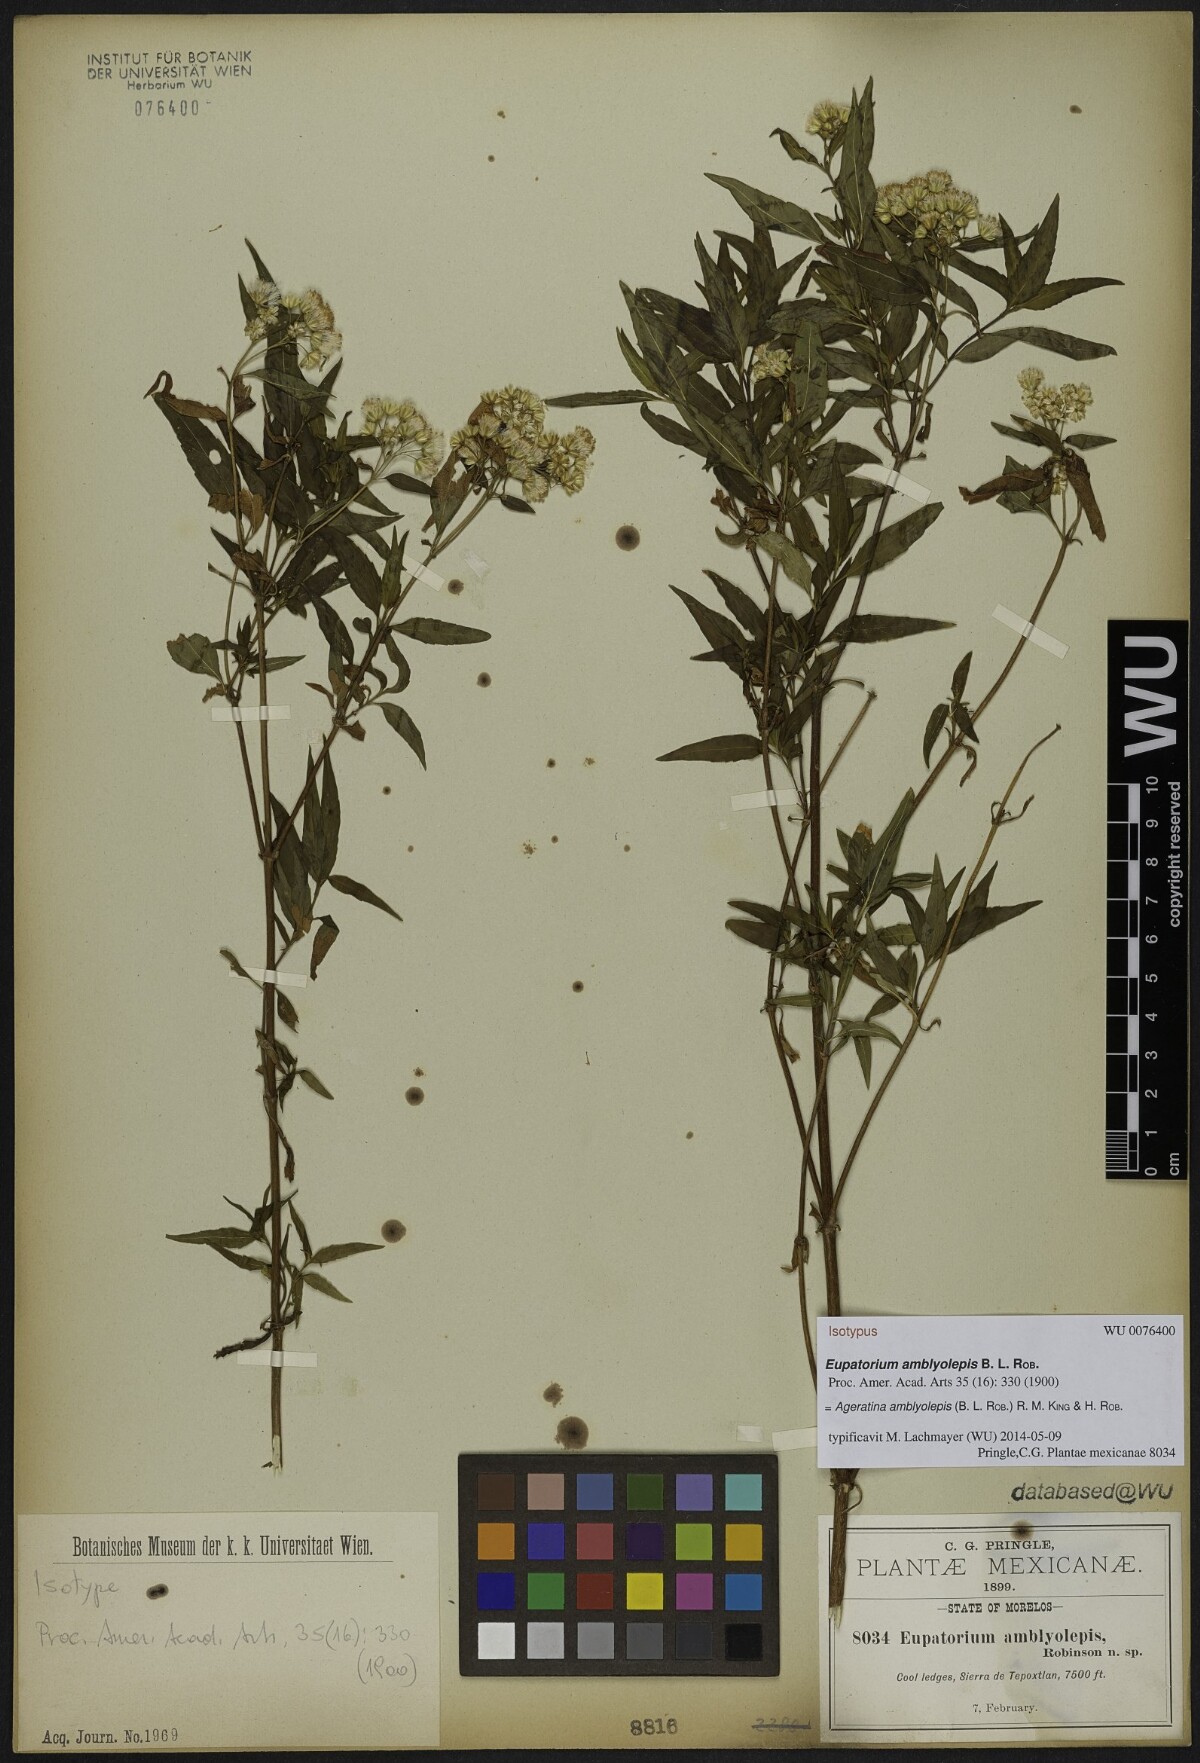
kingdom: Plantae
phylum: Tracheophyta
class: Magnoliopsida
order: Asterales
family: Asteraceae
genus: Ageratina
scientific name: Ageratina amblyolepis
